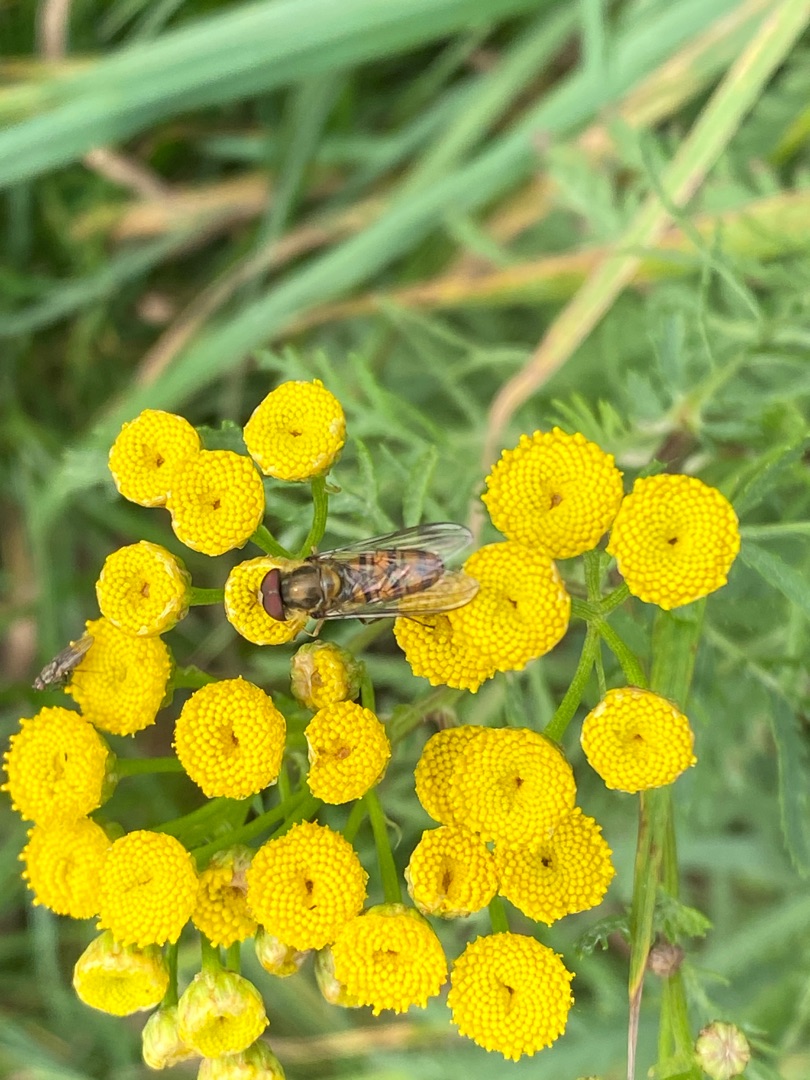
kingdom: Animalia
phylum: Arthropoda
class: Insecta
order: Diptera
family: Syrphidae
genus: Episyrphus
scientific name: Episyrphus balteatus
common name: Dobbeltbåndet svirreflue
